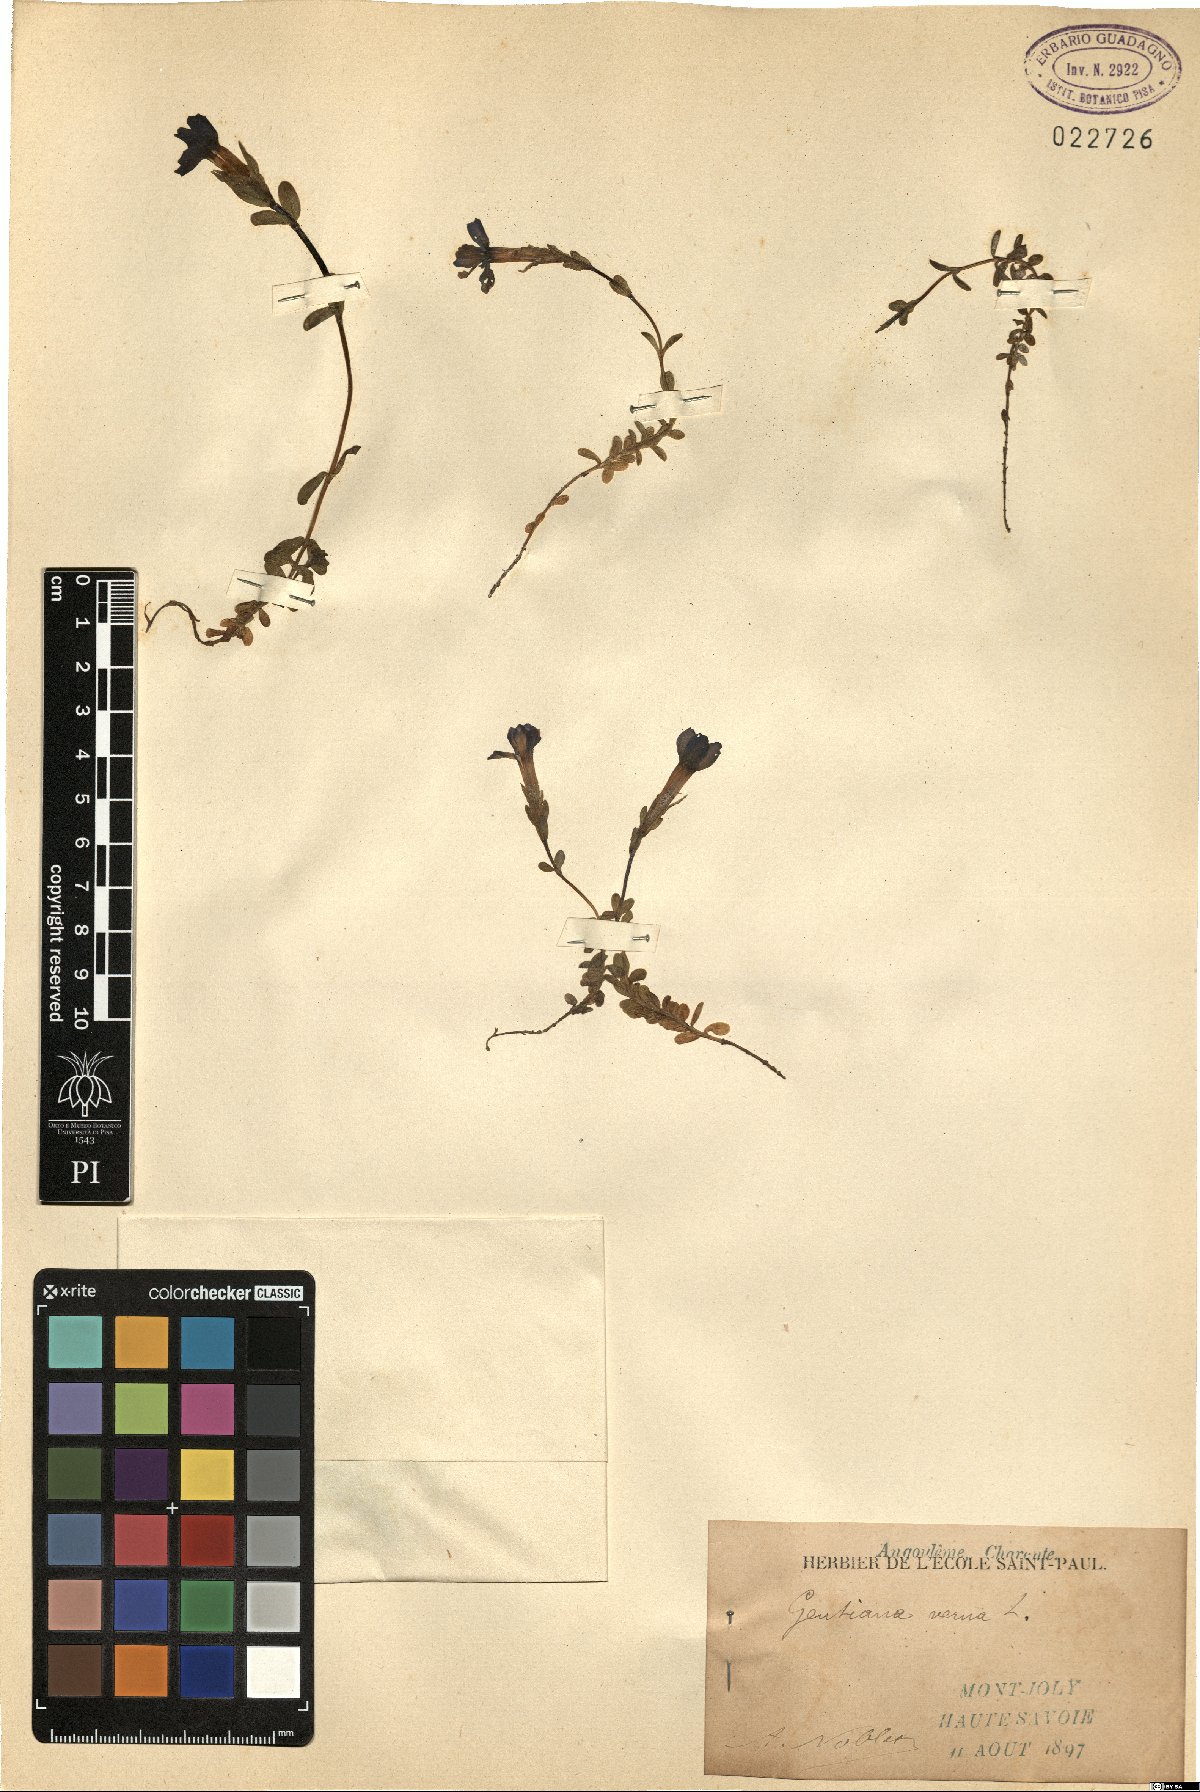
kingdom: Plantae
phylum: Tracheophyta
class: Magnoliopsida
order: Gentianales
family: Gentianaceae
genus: Gentiana
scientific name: Gentiana verna
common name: Spring gentian
